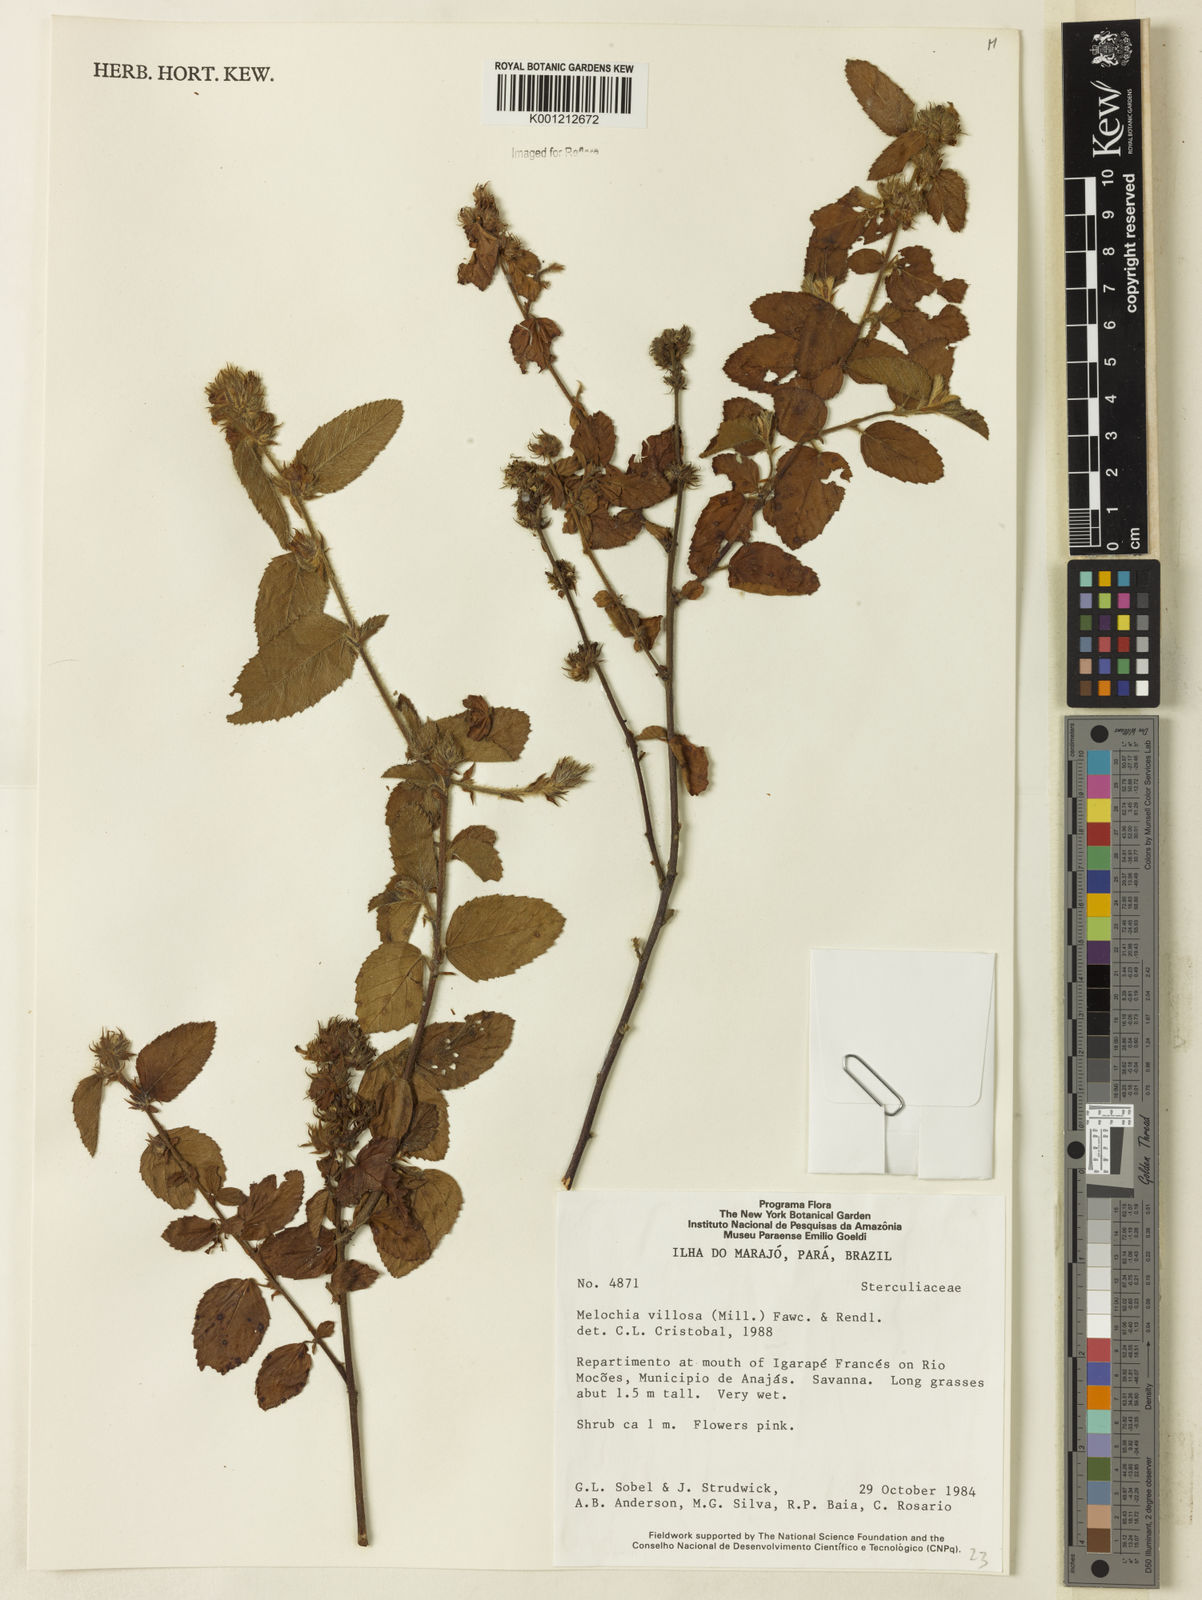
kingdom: Plantae
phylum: Tracheophyta
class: Magnoliopsida
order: Malvales
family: Malvaceae
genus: Melochia
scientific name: Melochia spicata
